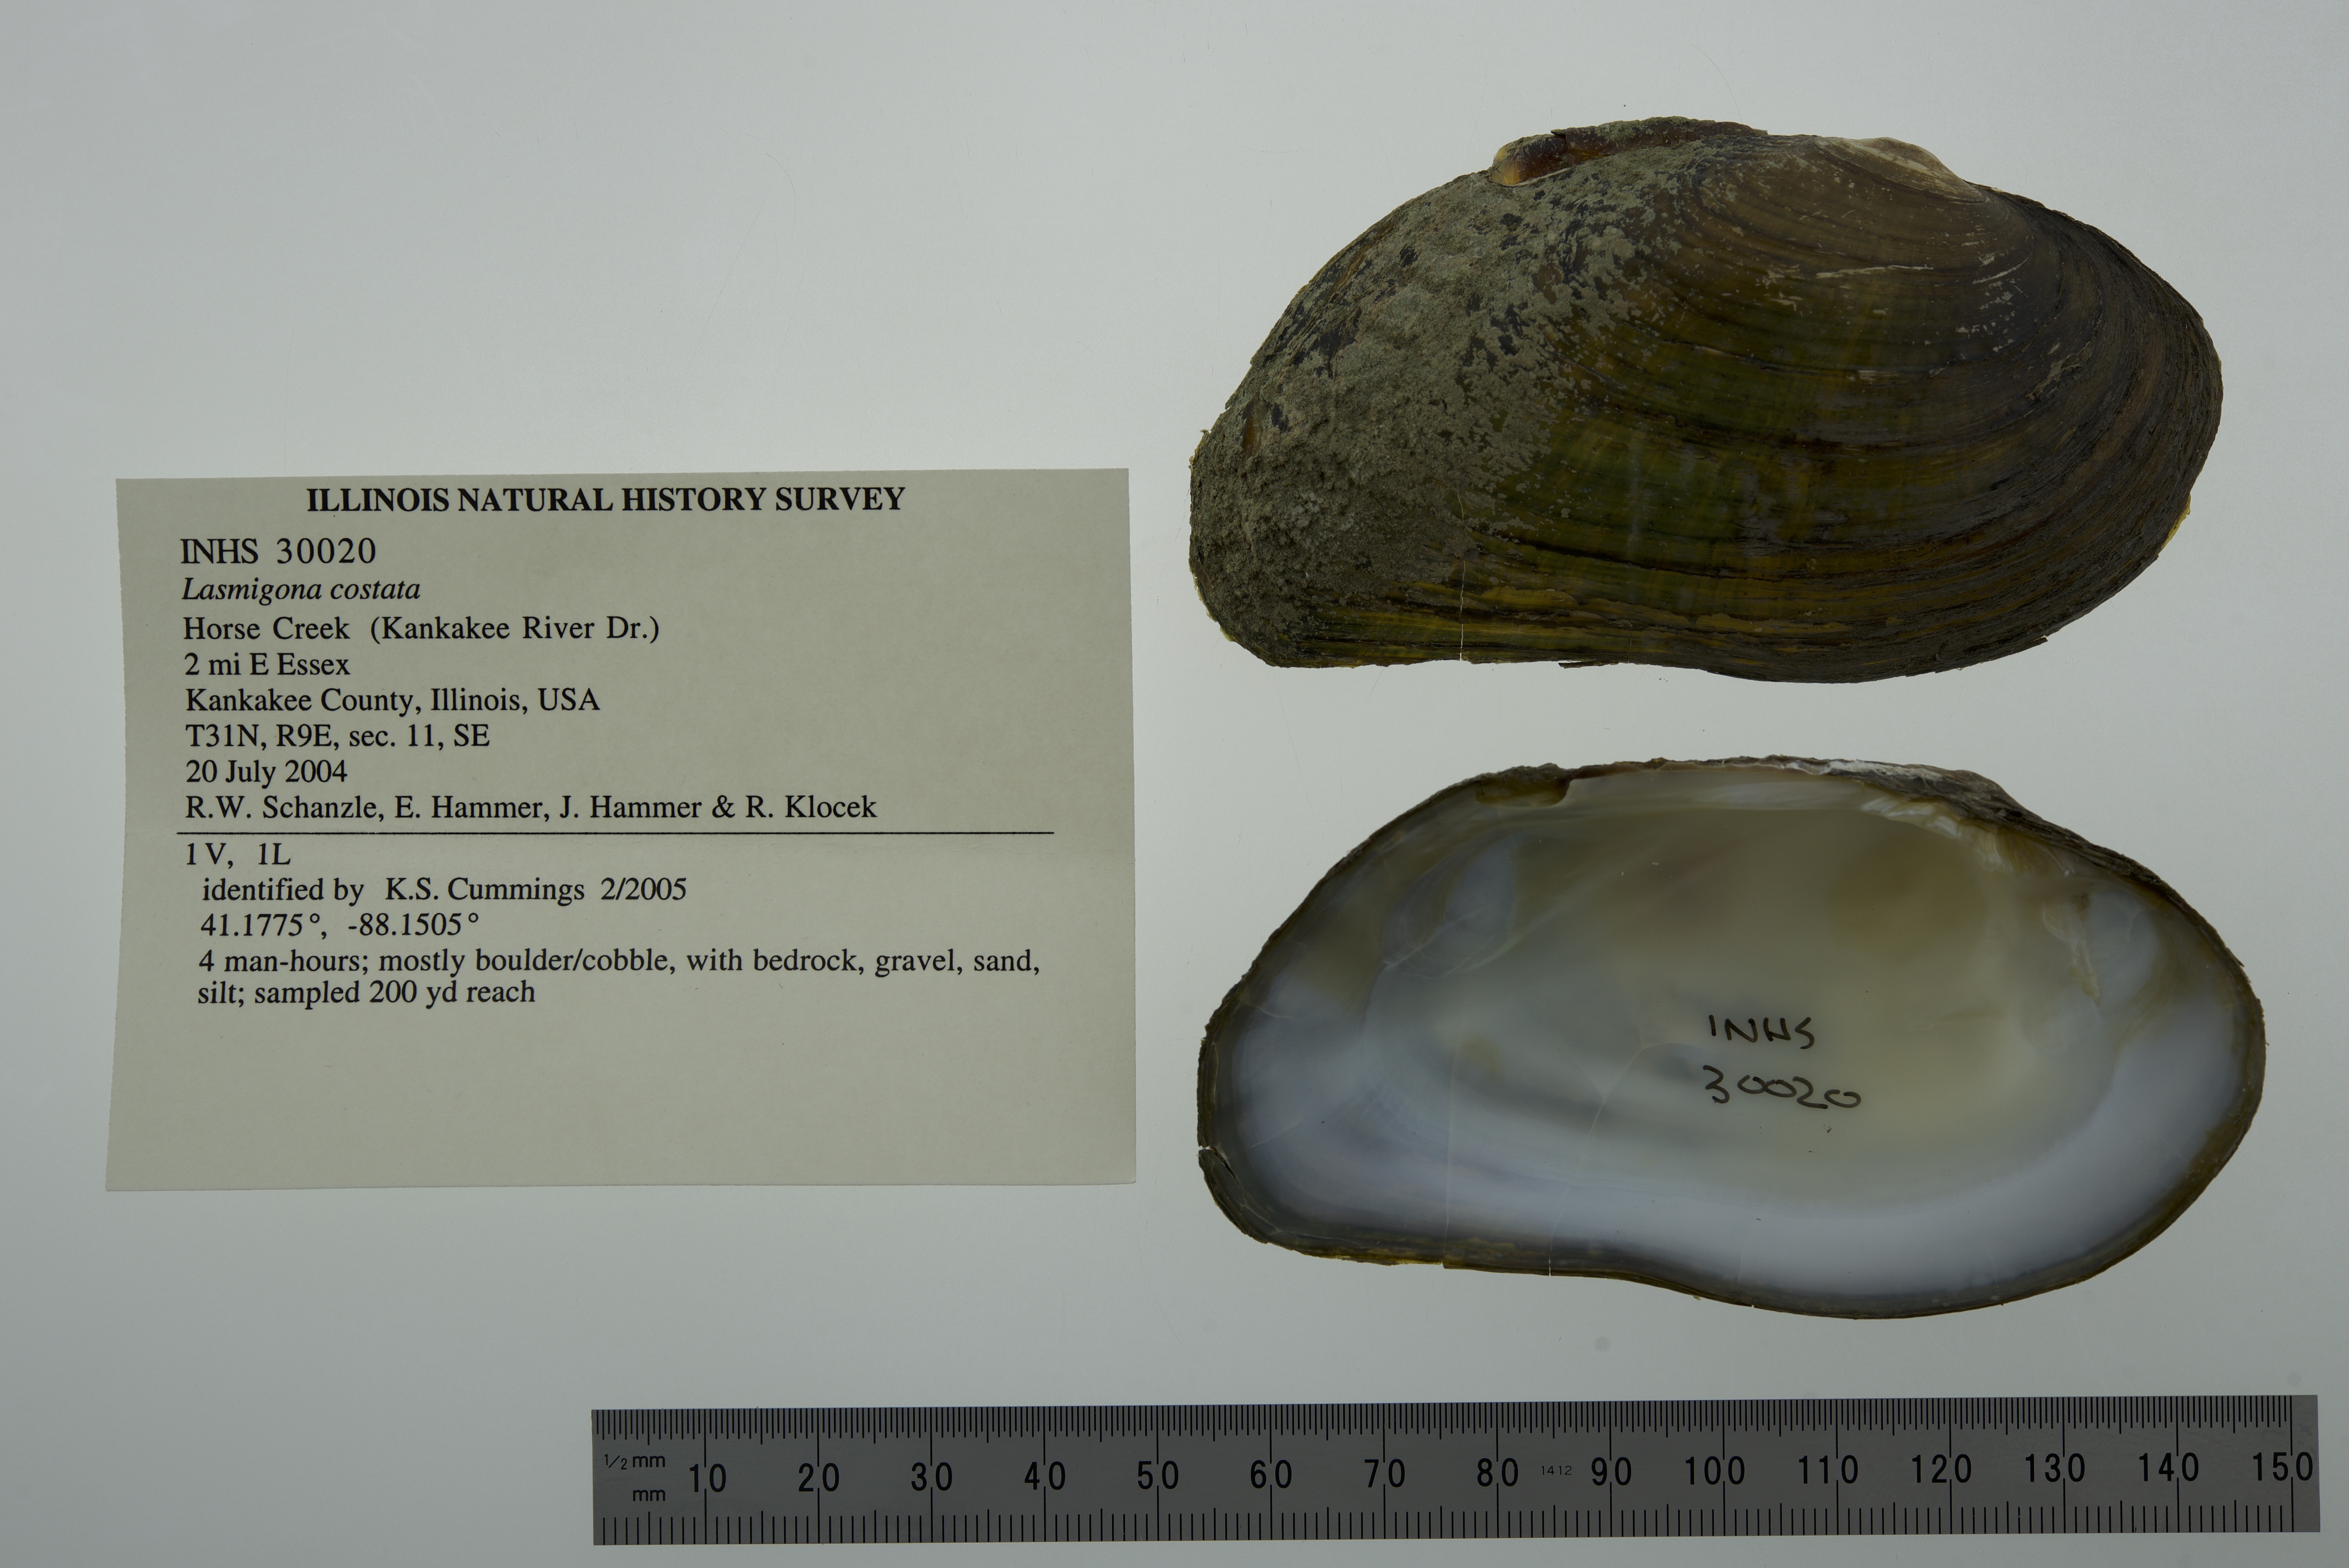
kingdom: Animalia
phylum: Mollusca
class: Bivalvia
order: Unionida
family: Unionidae
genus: Lasmigona
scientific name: Lasmigona costata
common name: Flutedshell
